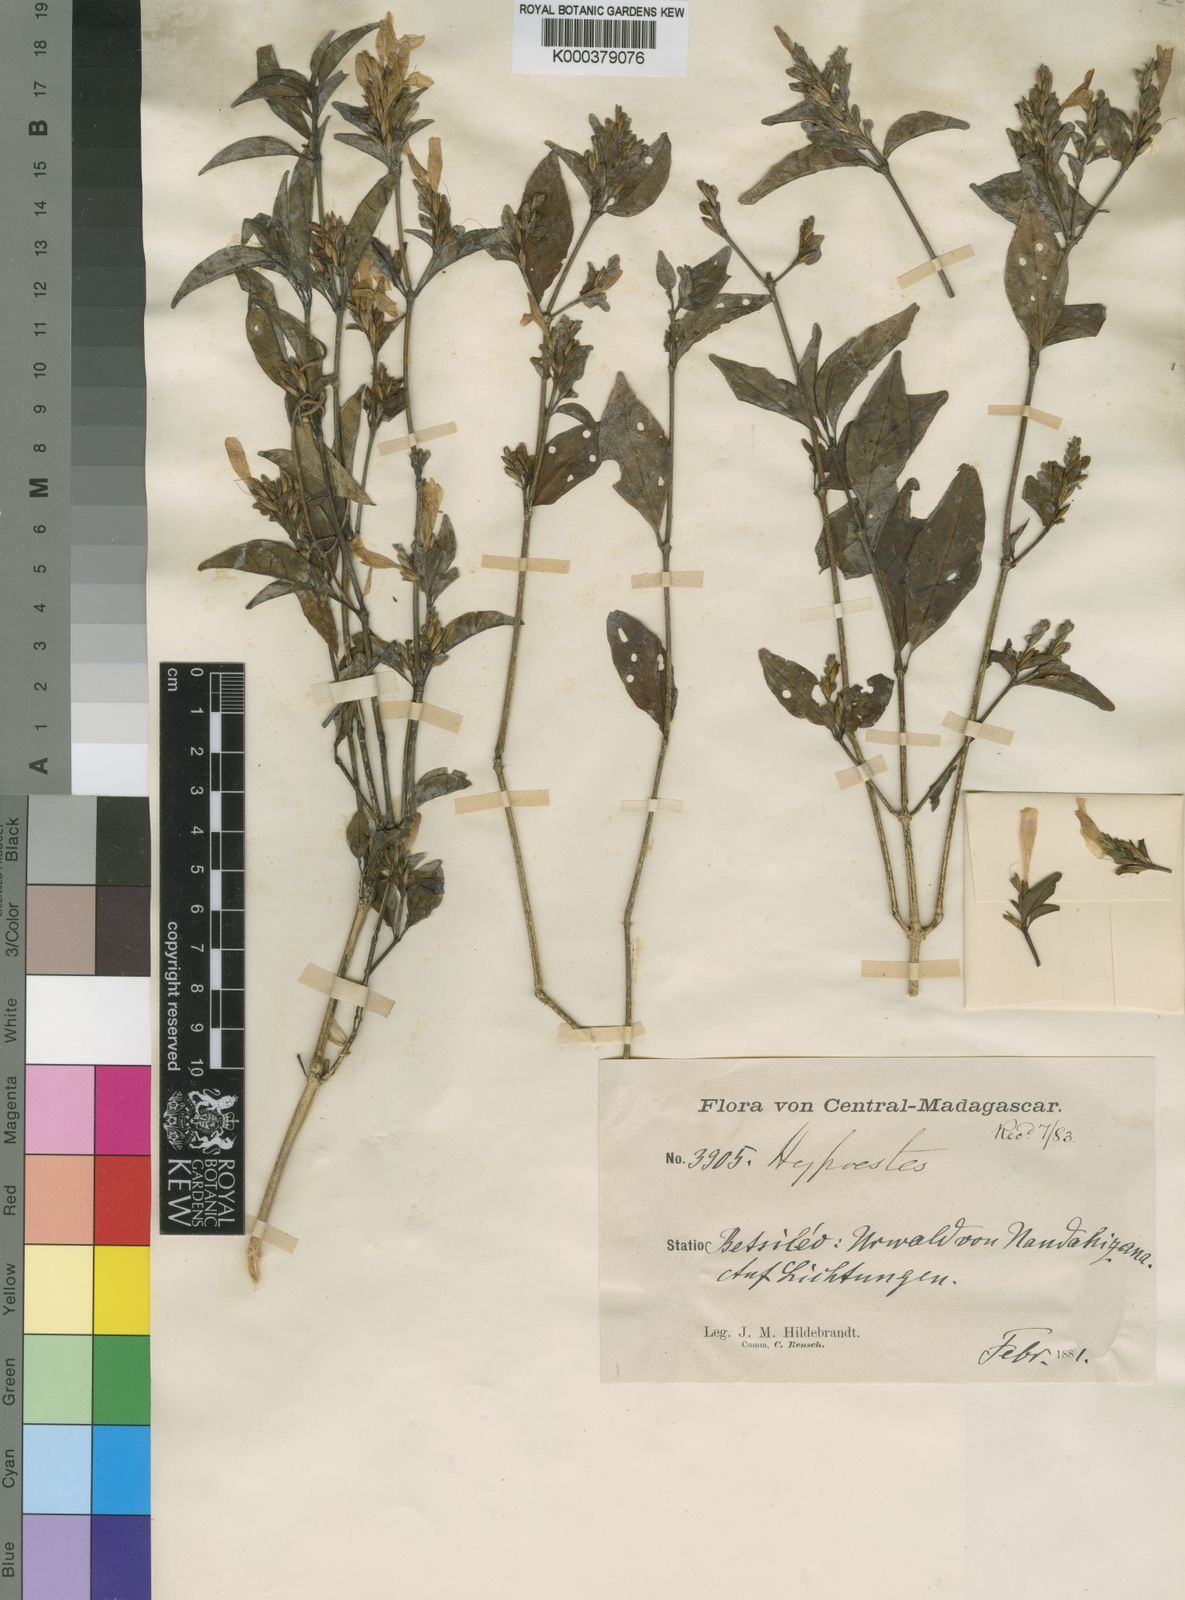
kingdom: Plantae
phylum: Tracheophyta
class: Magnoliopsida
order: Lamiales
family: Acanthaceae
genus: Hypoestes
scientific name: Hypoestes betsiliensis
